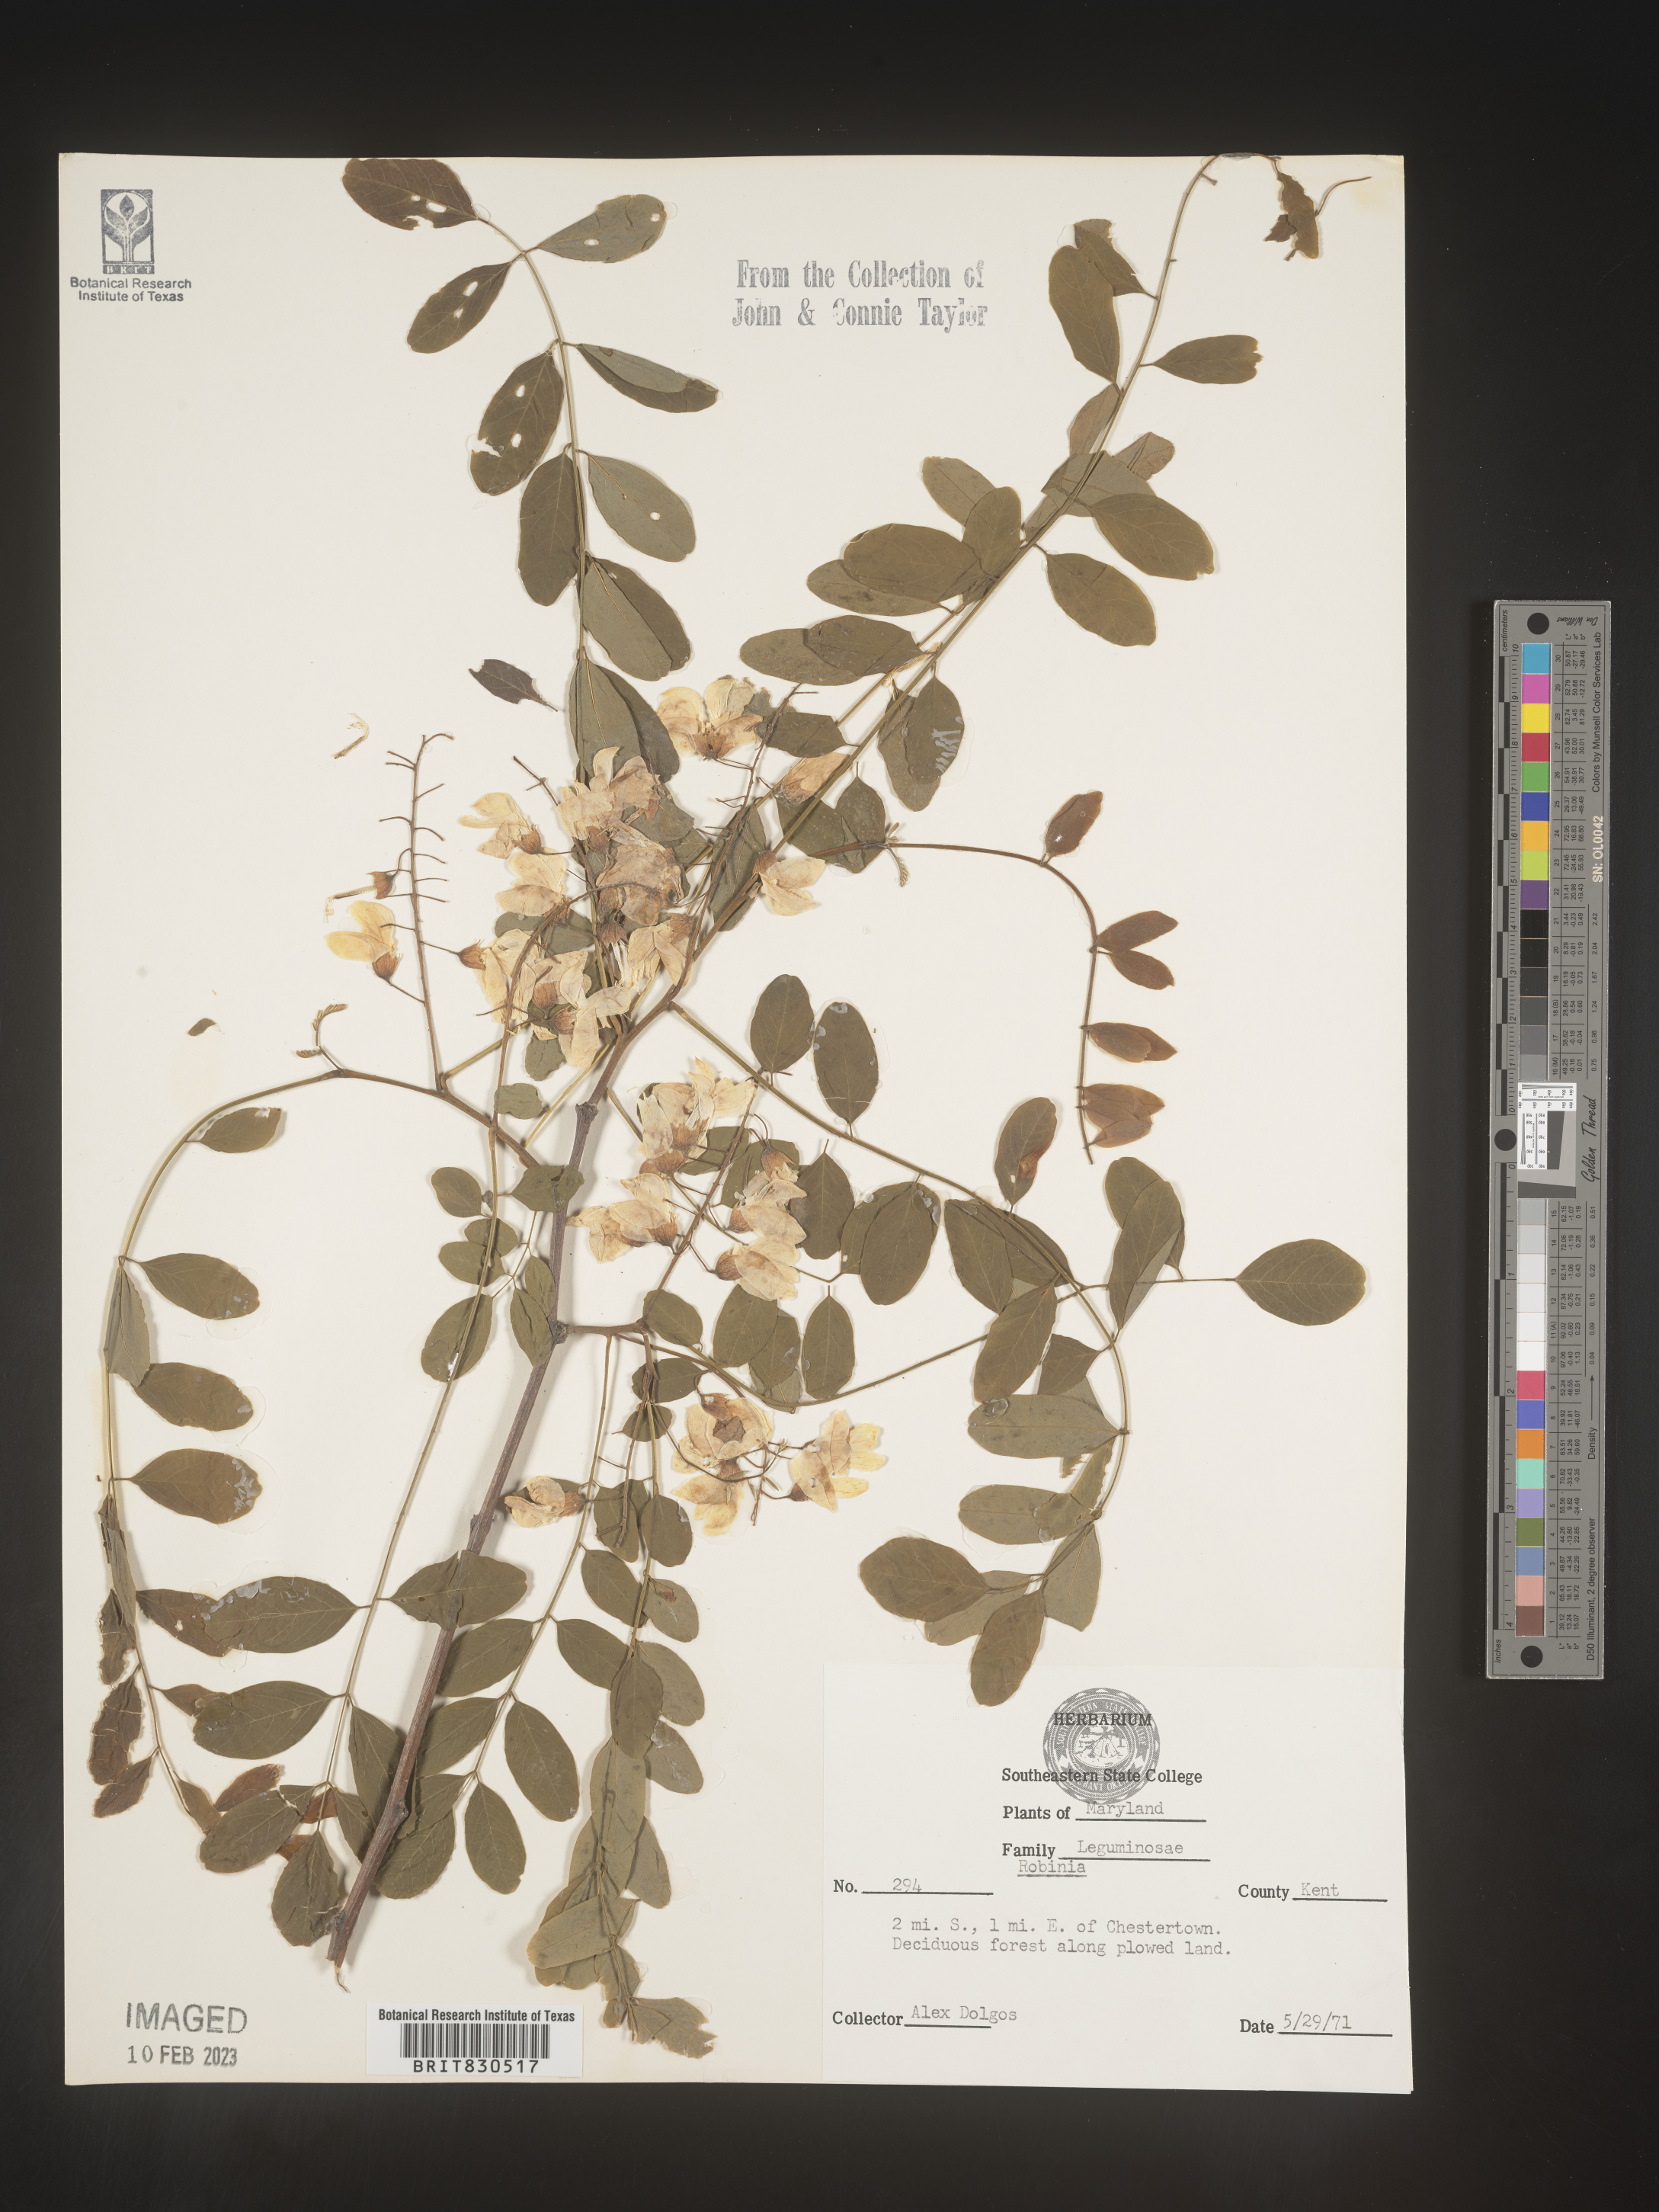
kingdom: Plantae
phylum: Tracheophyta
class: Magnoliopsida
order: Fabales
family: Fabaceae
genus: Robinia
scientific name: Robinia
